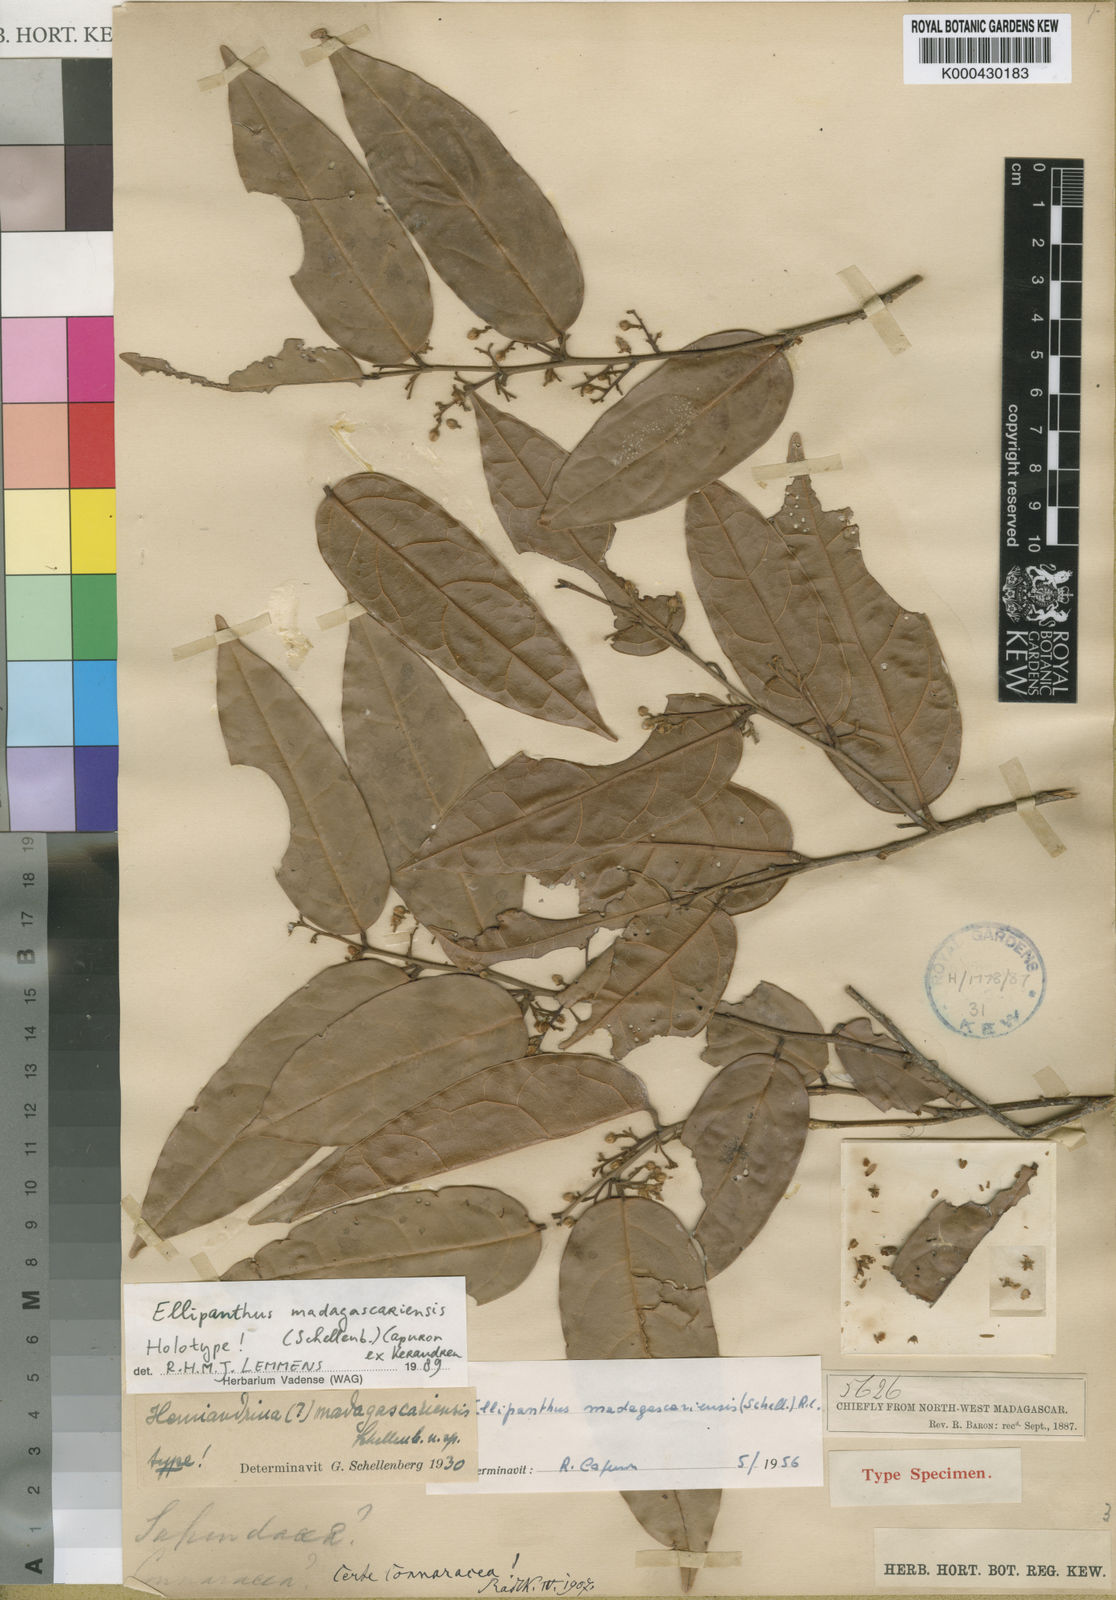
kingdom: Plantae
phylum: Tracheophyta
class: Magnoliopsida
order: Oxalidales
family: Connaraceae
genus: Ellipanthus
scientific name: Ellipanthus madagascariensis
